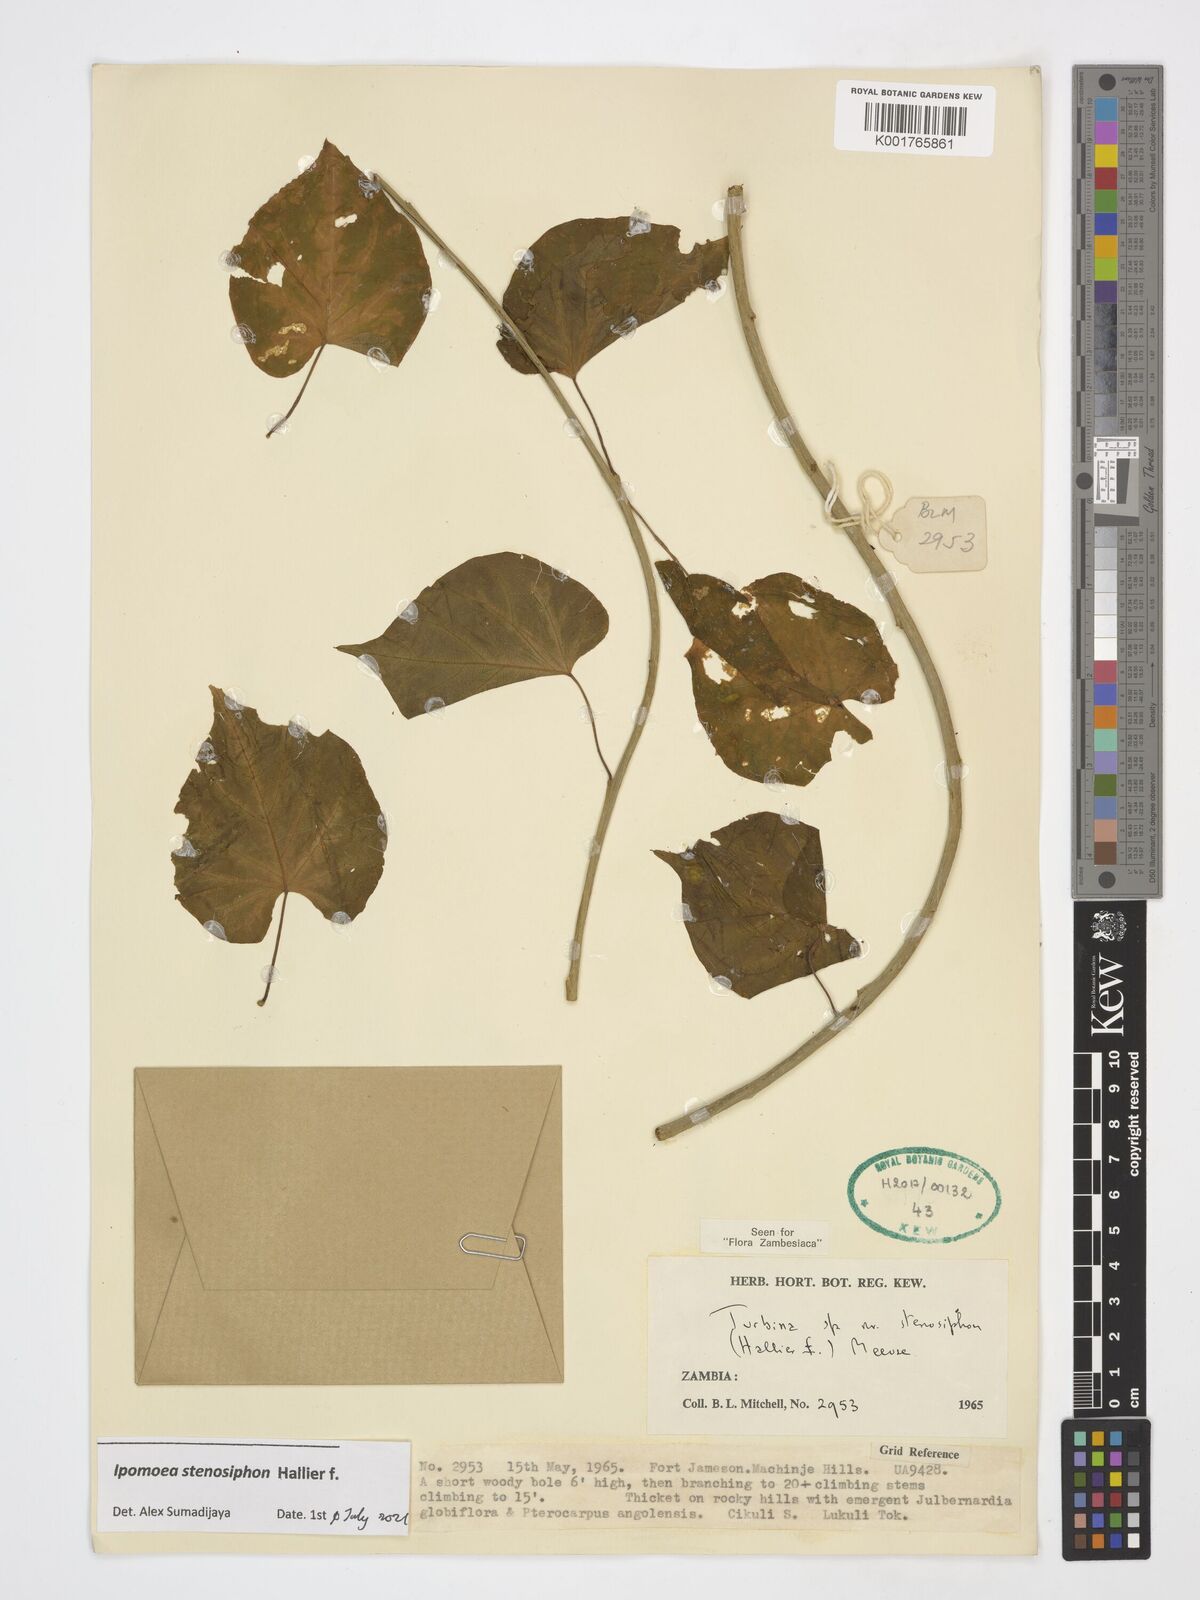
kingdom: Plantae
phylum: Tracheophyta
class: Magnoliopsida
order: Solanales
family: Convolvulaceae
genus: Ipomoea
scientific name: Ipomoea stenosiphon
